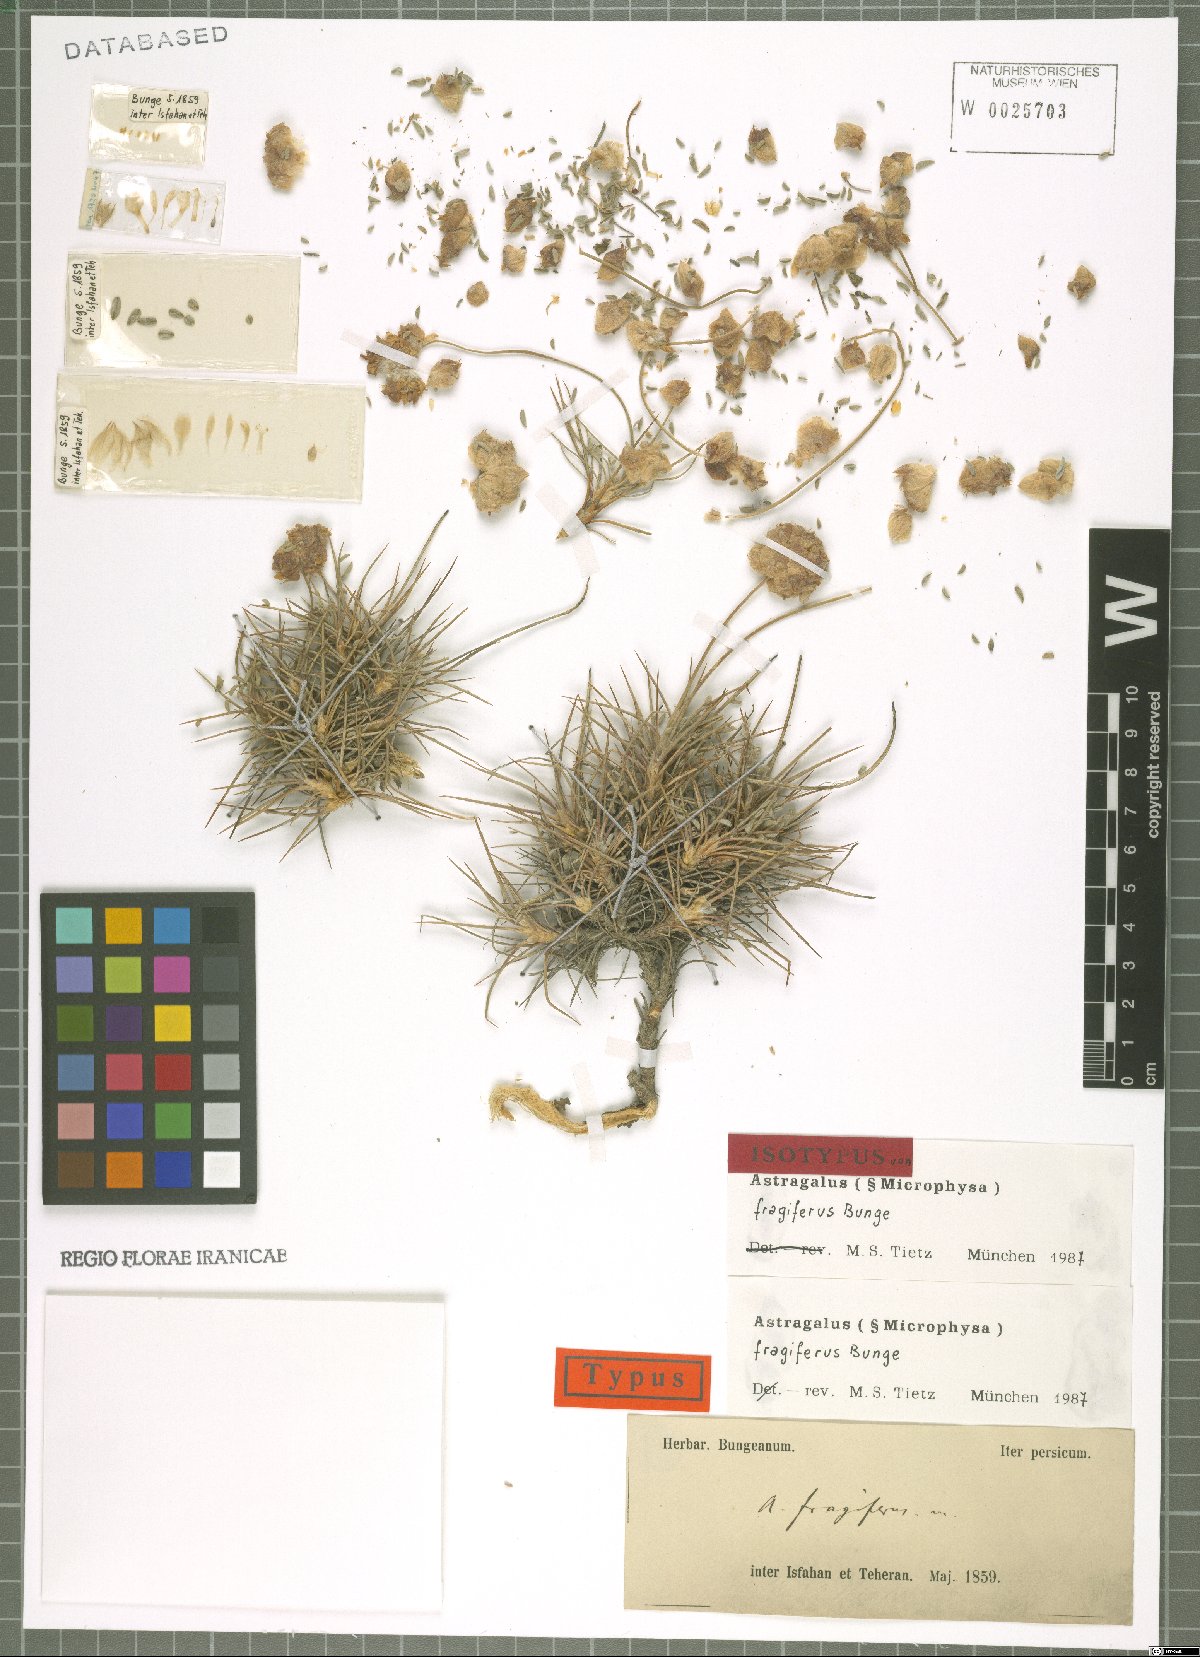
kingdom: Plantae
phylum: Tracheophyta
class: Magnoliopsida
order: Fabales
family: Fabaceae
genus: Astragalus
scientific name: Astragalus fragiferus
